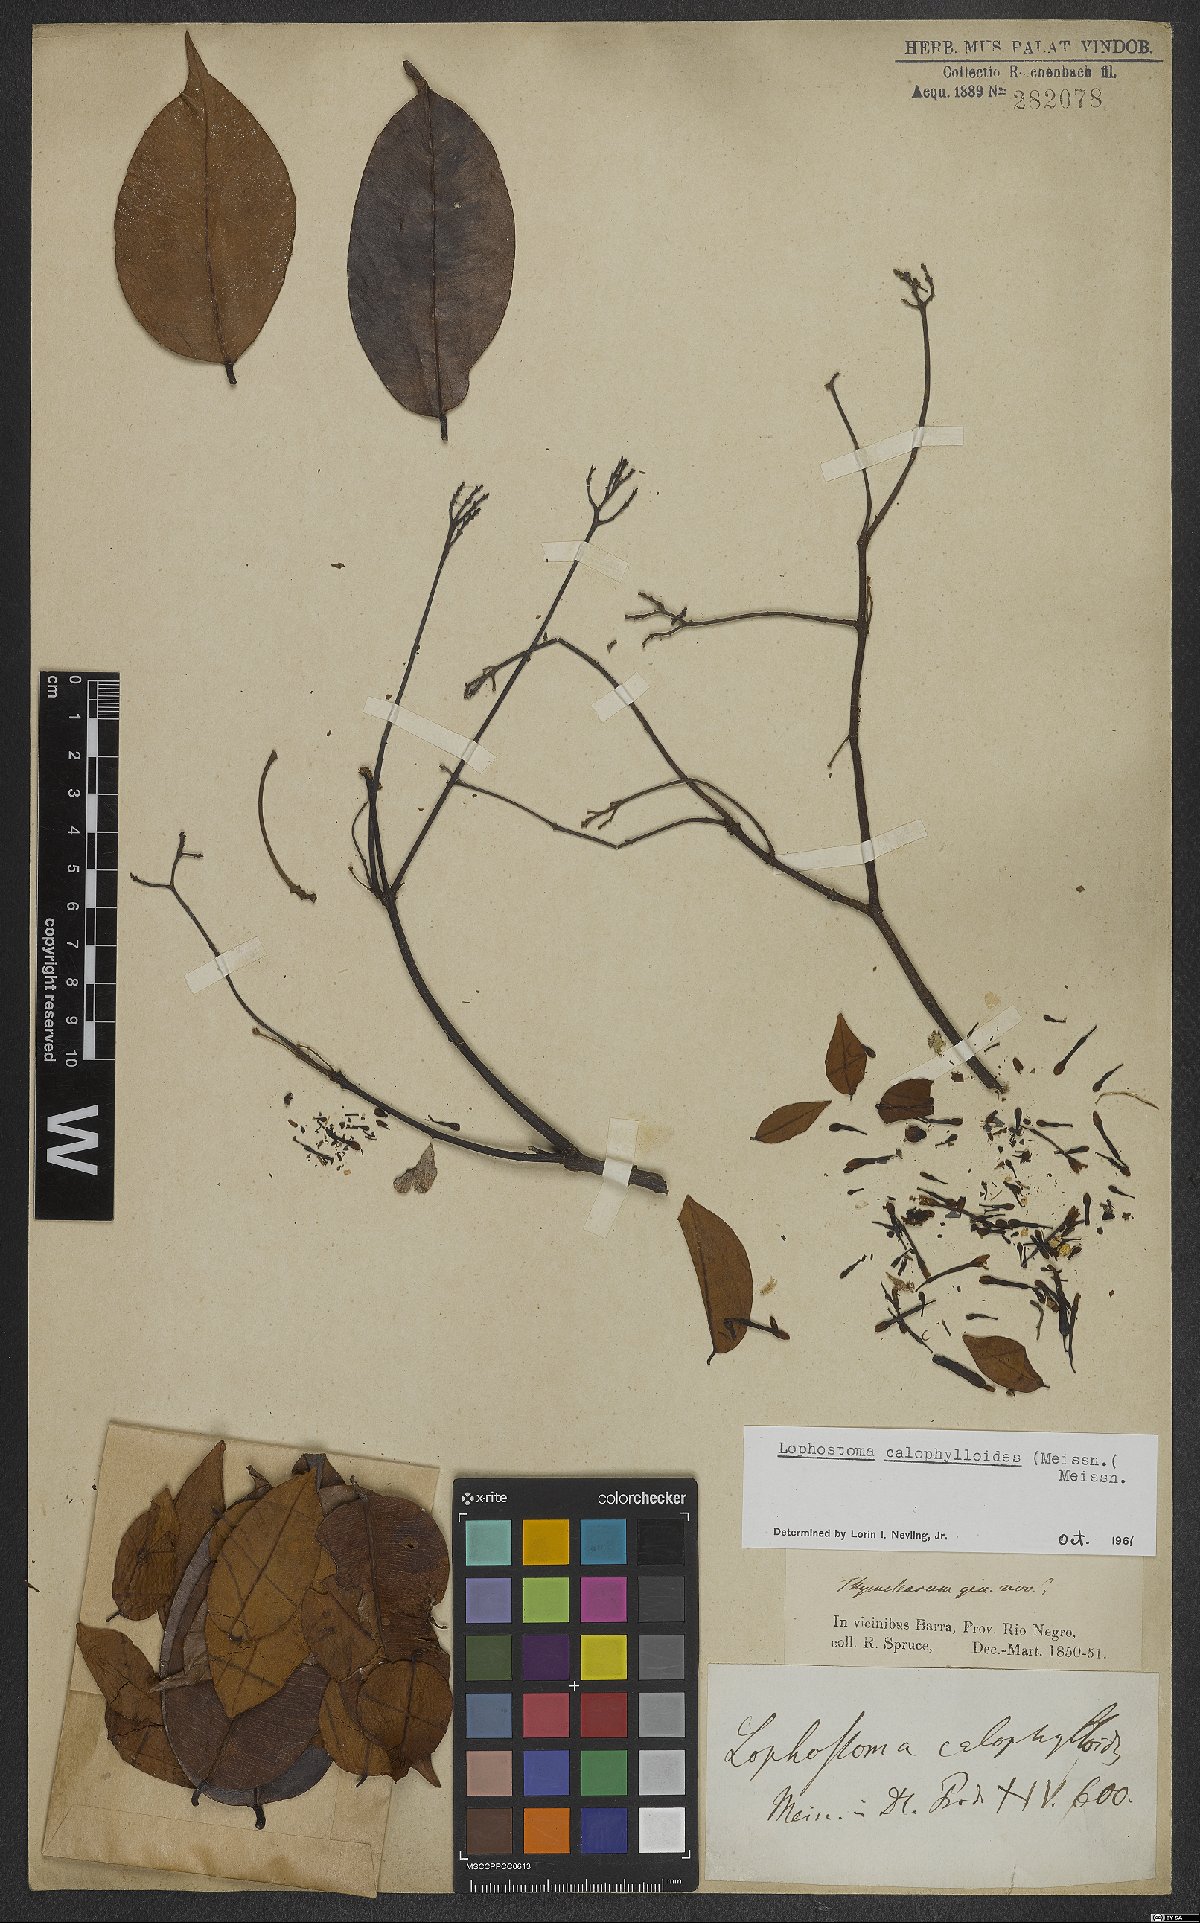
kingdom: Plantae
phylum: Tracheophyta
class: Magnoliopsida
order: Malvales
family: Thymelaeaceae
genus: Lophostoma
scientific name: Lophostoma calophylloides
